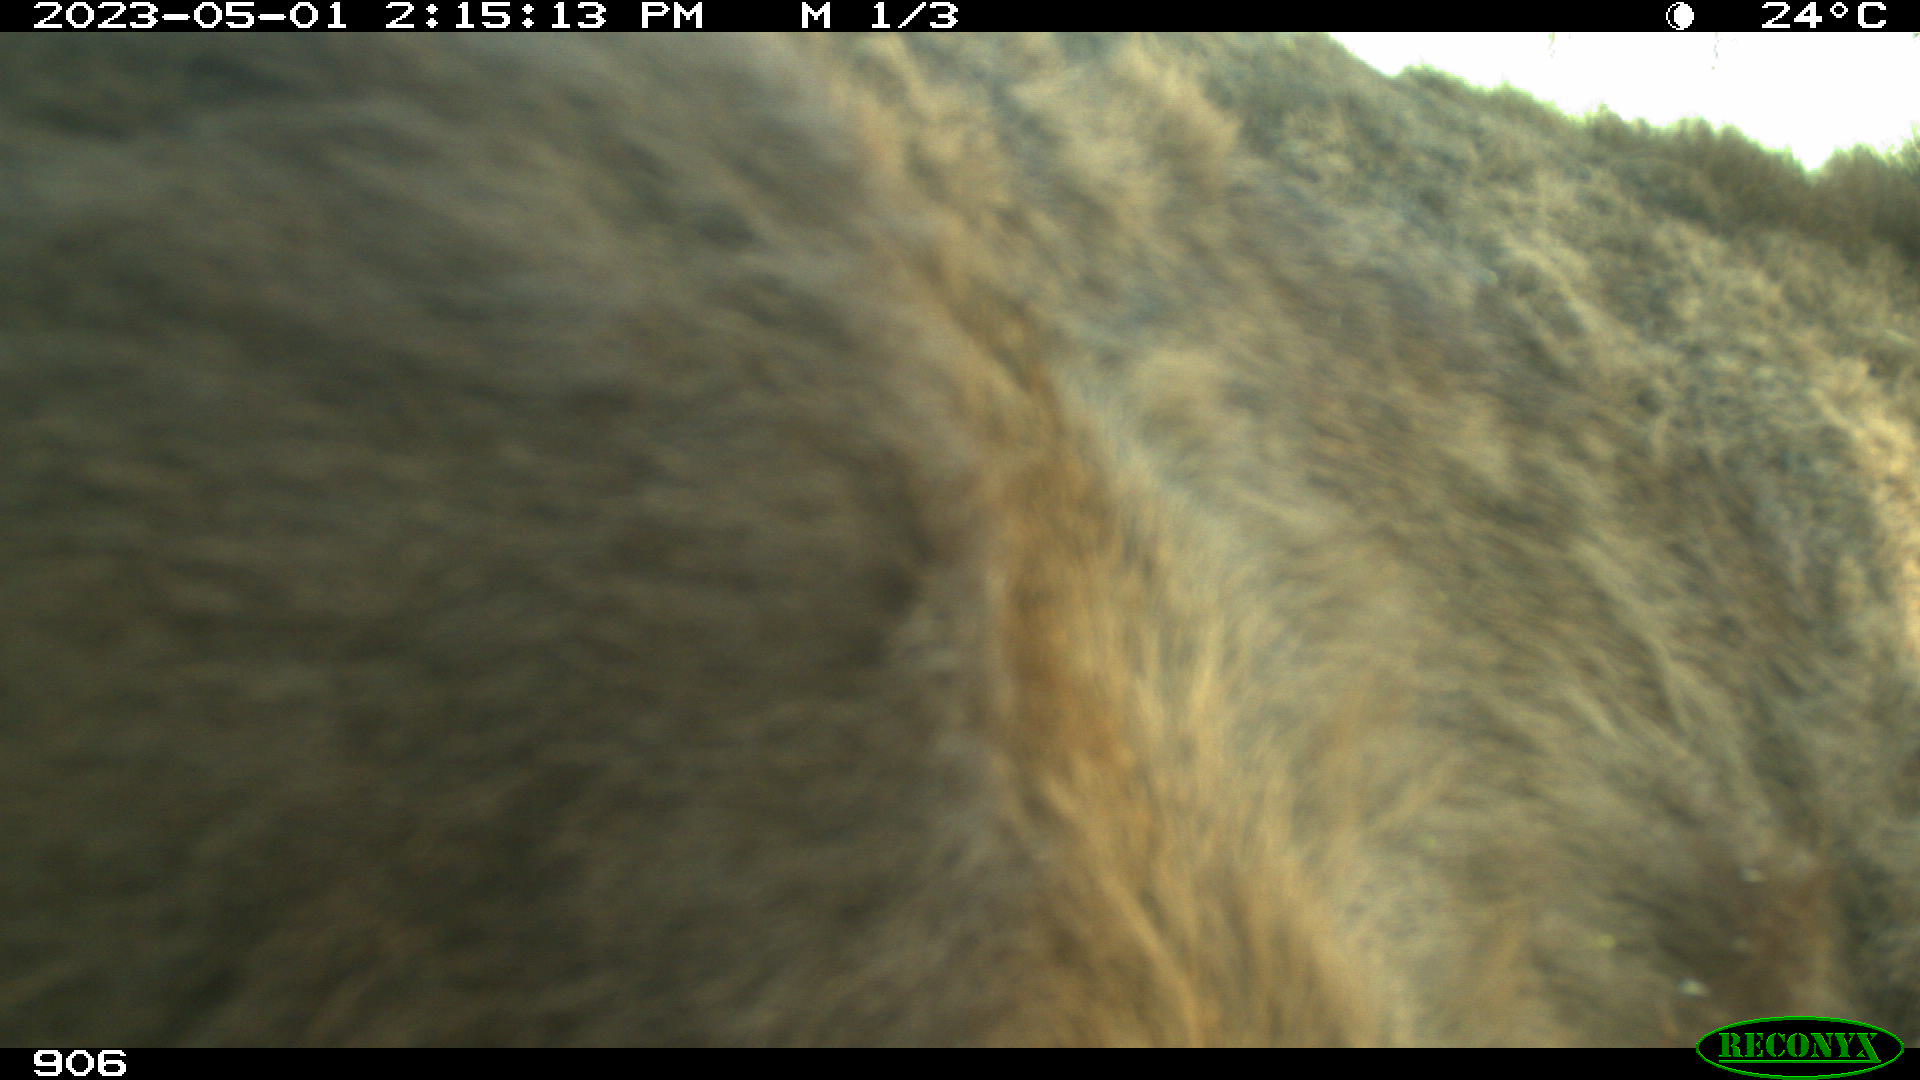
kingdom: Animalia
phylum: Chordata
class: Mammalia
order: Perissodactyla
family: Equidae
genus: Equus
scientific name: Equus caballus
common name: Horse
